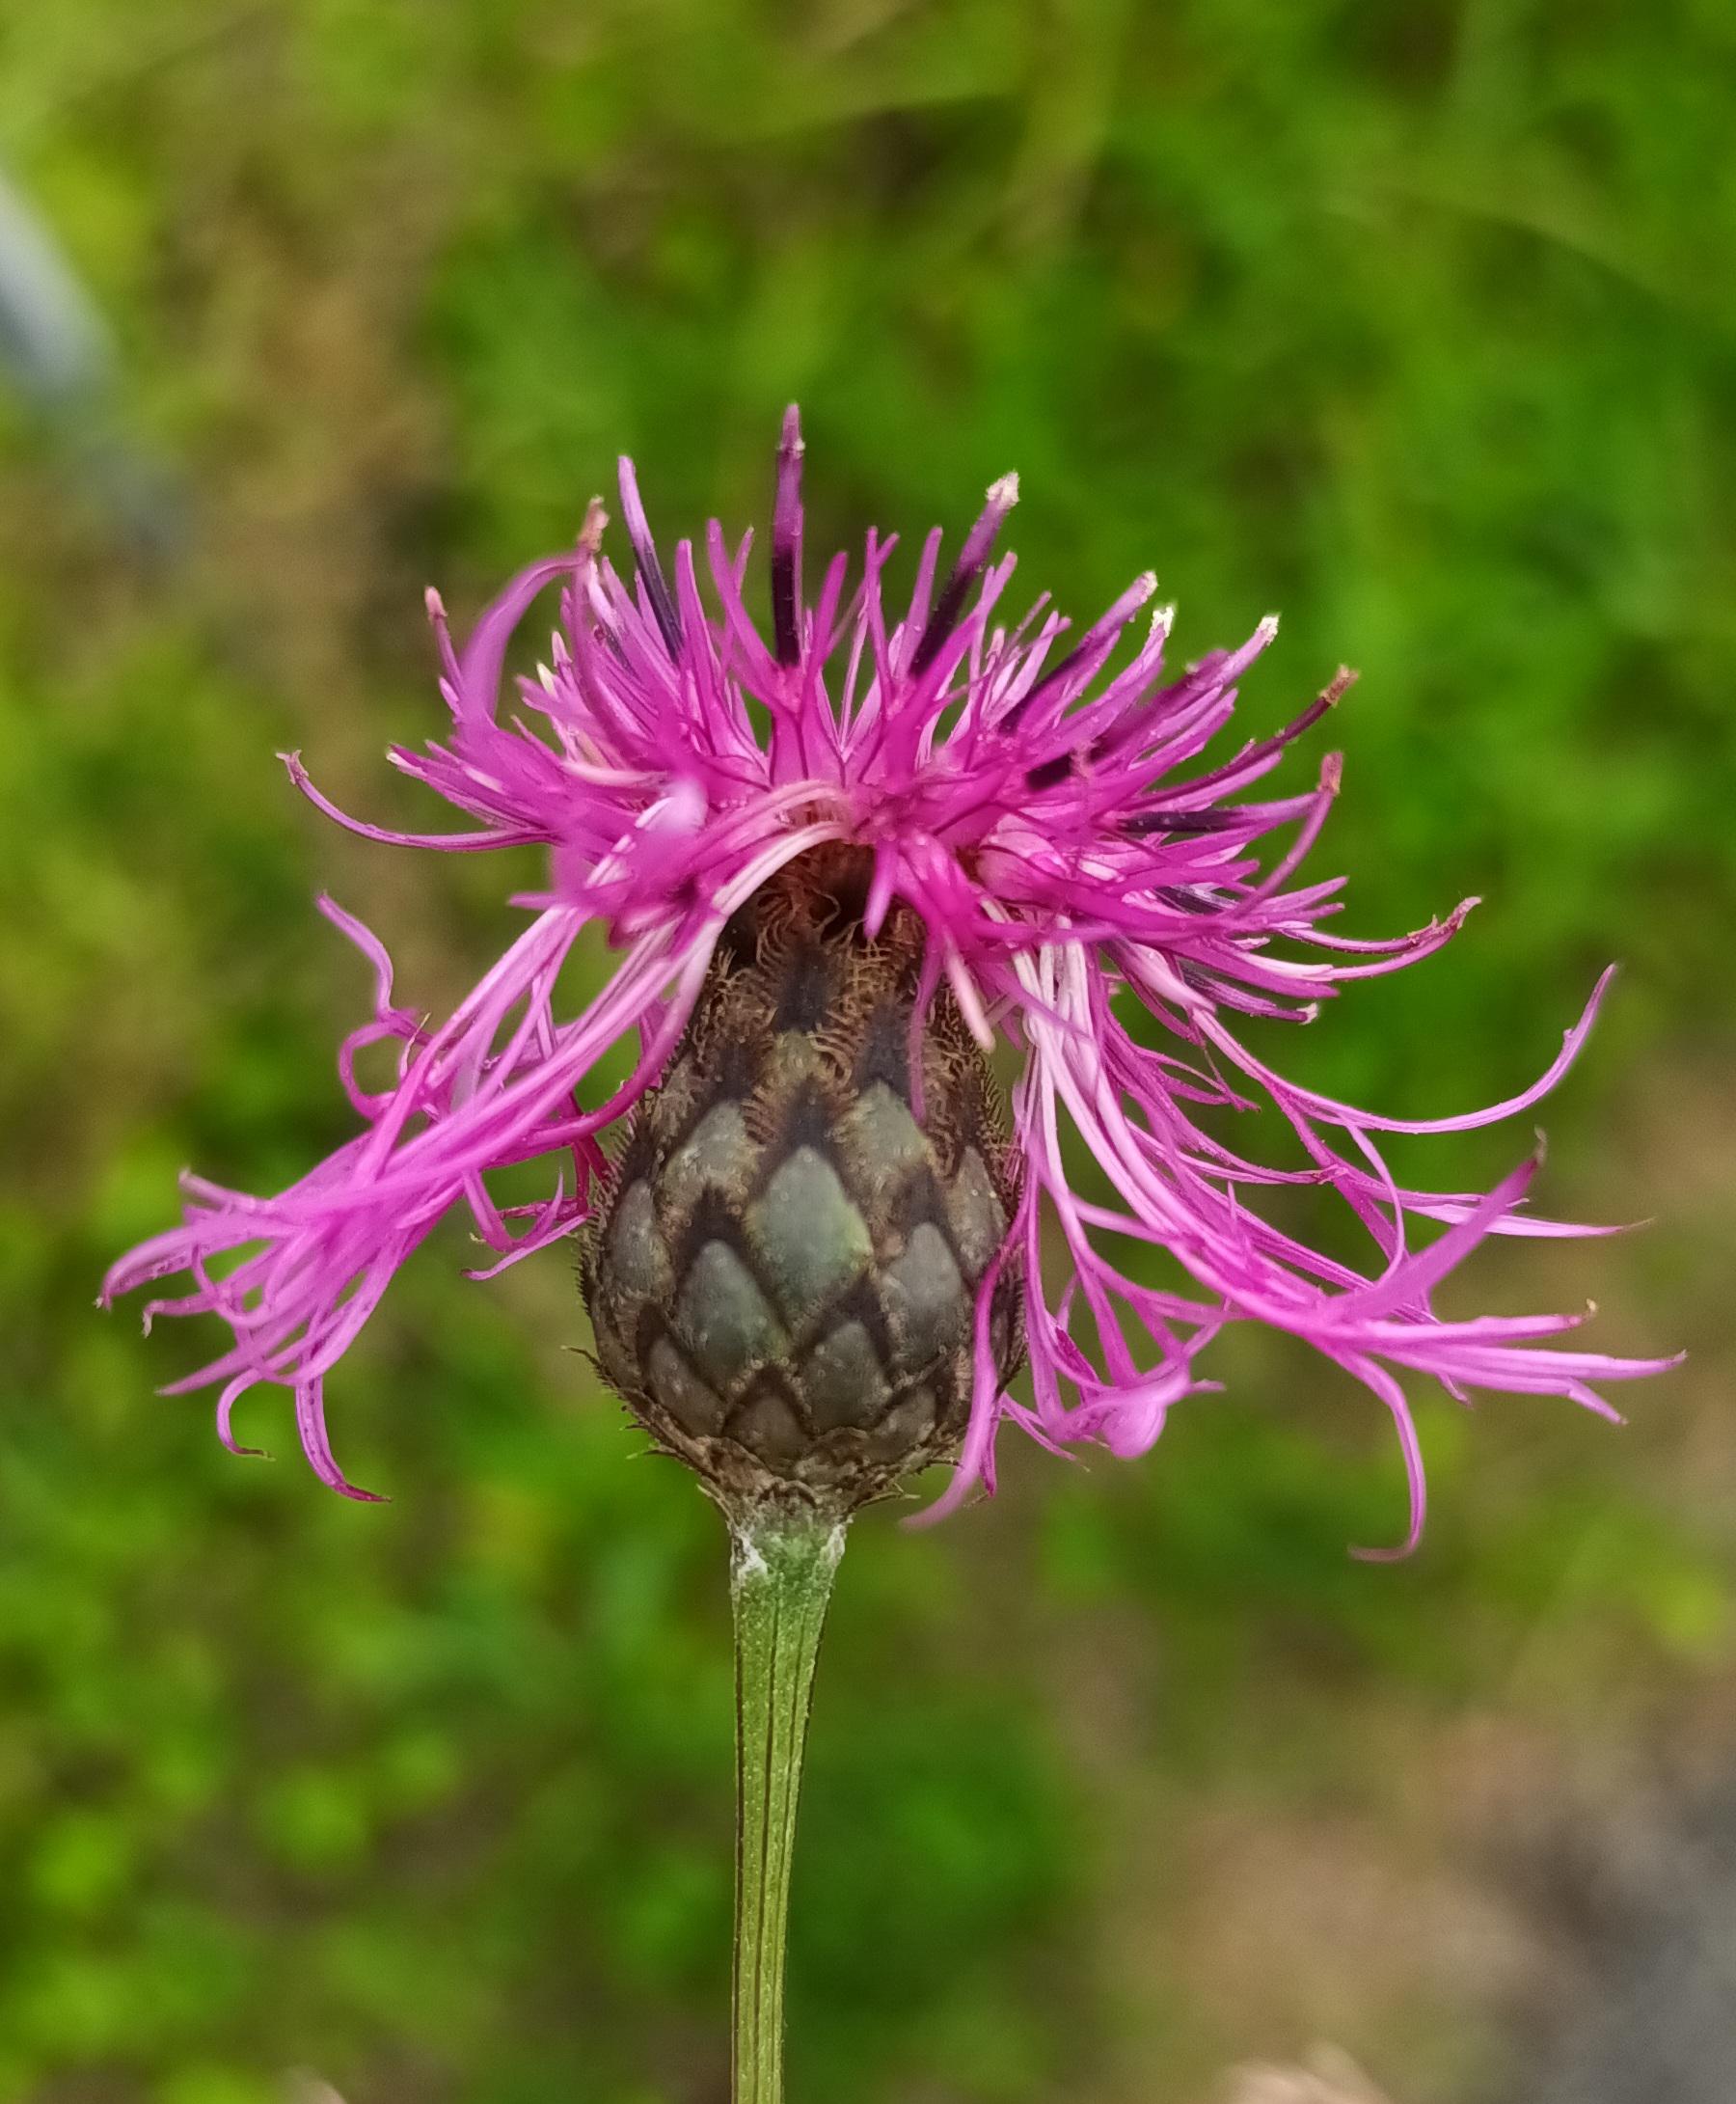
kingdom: Plantae
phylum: Tracheophyta
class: Magnoliopsida
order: Asterales
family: Asteraceae
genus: Centaurea
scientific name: Centaurea scabiosa
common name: Stor knopurt
